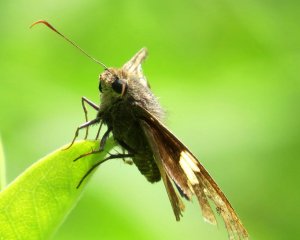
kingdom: Animalia
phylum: Arthropoda
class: Insecta
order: Lepidoptera
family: Hesperiidae
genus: Epargyreus
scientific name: Epargyreus clarus
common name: Silver-spotted Skipper
